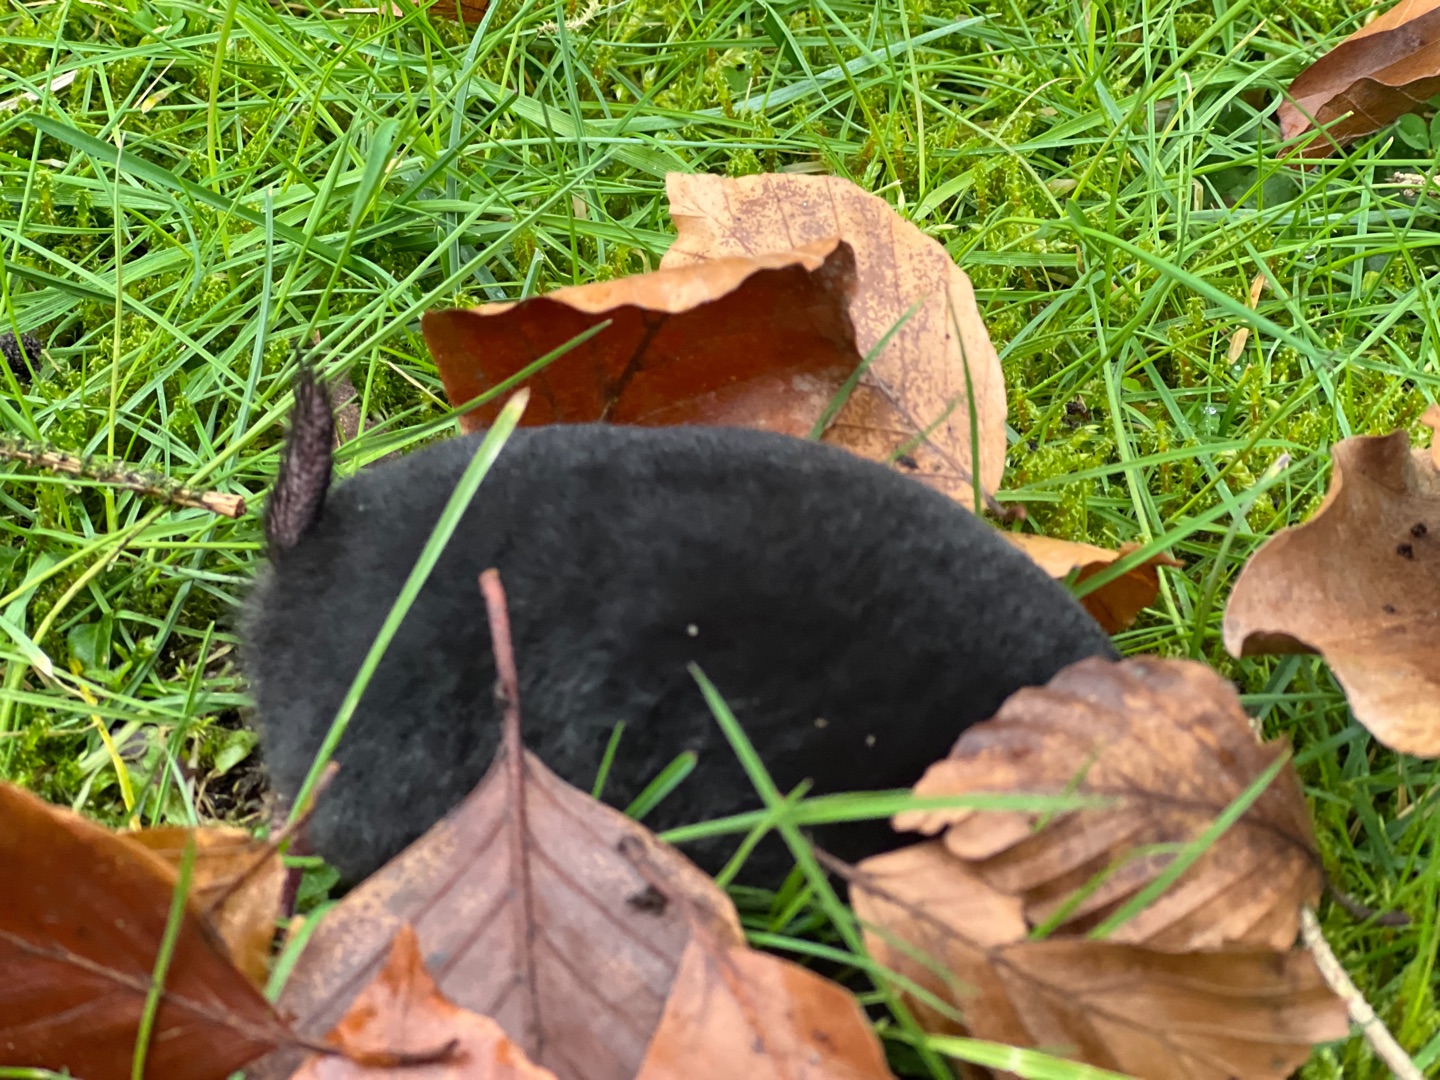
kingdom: Animalia
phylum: Chordata
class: Mammalia
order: Soricomorpha
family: Talpidae
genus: Talpa
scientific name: Talpa europaea
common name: Muldvarp
